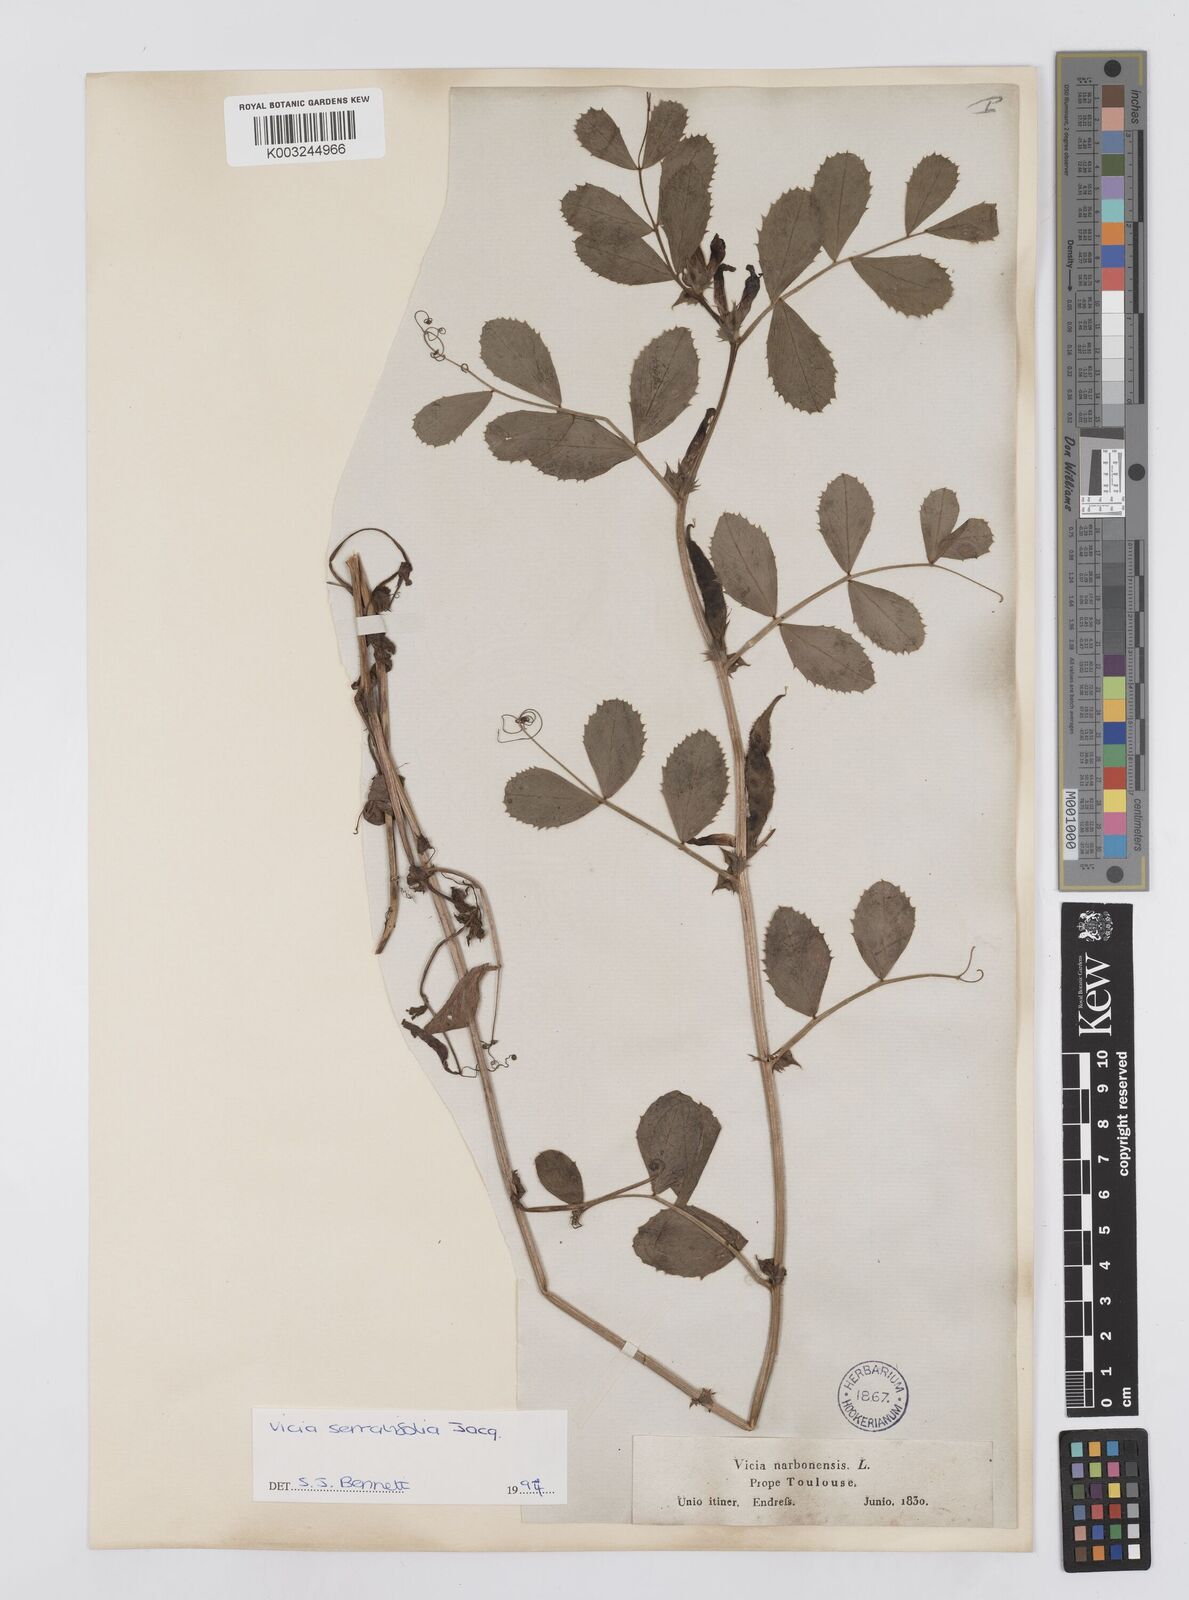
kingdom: Plantae
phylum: Tracheophyta
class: Magnoliopsida
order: Fabales
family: Fabaceae
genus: Vicia
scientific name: Vicia serratifolia
